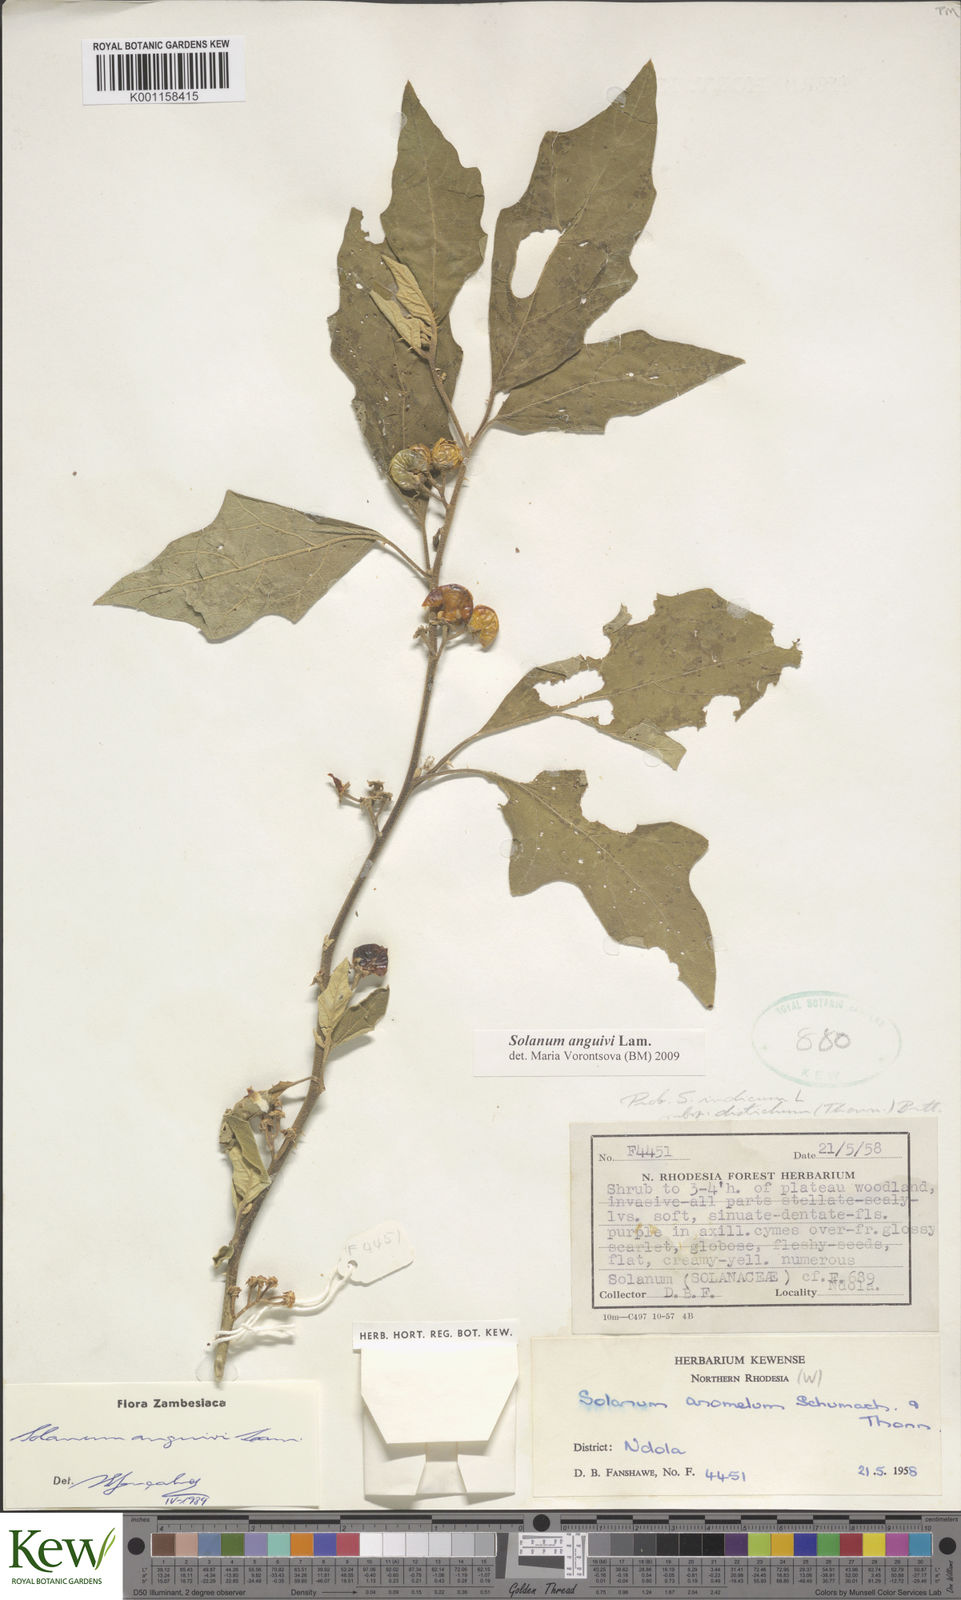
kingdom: Plantae
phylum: Tracheophyta
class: Magnoliopsida
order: Solanales
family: Solanaceae
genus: Solanum
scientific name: Solanum anguivi
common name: Forest bitterberry
